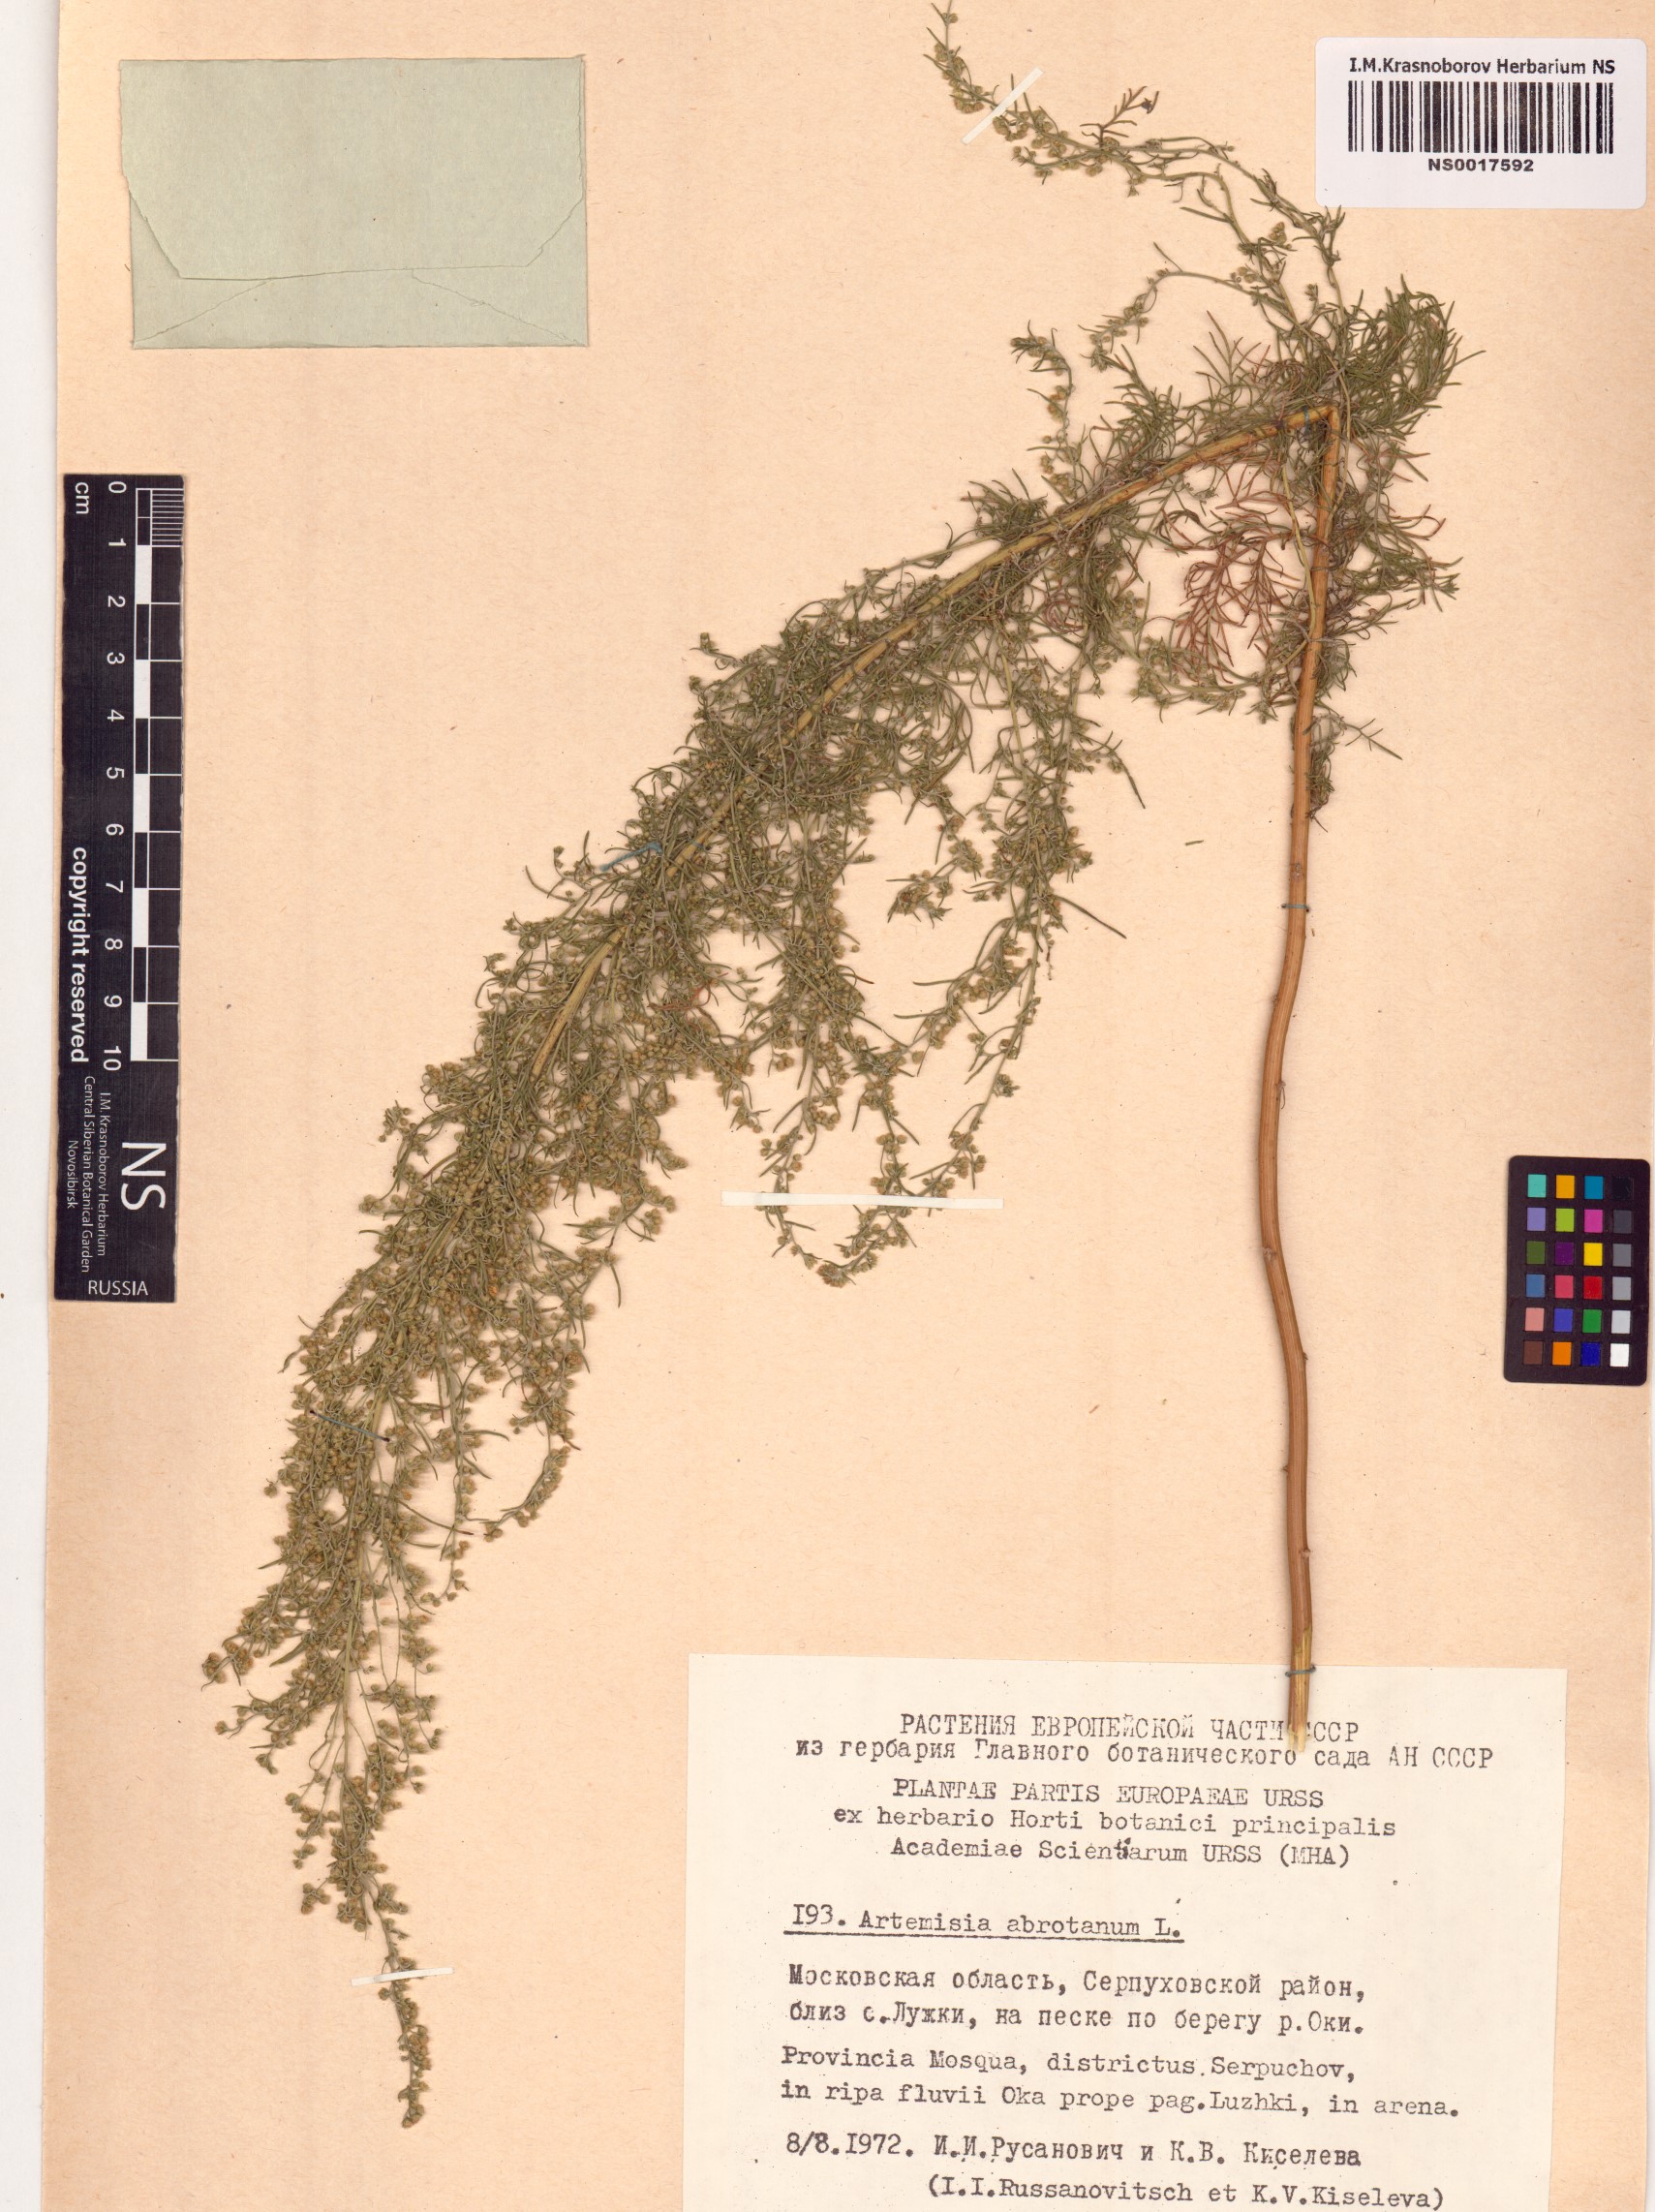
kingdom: Plantae
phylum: Tracheophyta
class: Magnoliopsida
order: Asterales
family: Asteraceae
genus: Artemisia
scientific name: Artemisia abrotanum
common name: Southernwood
